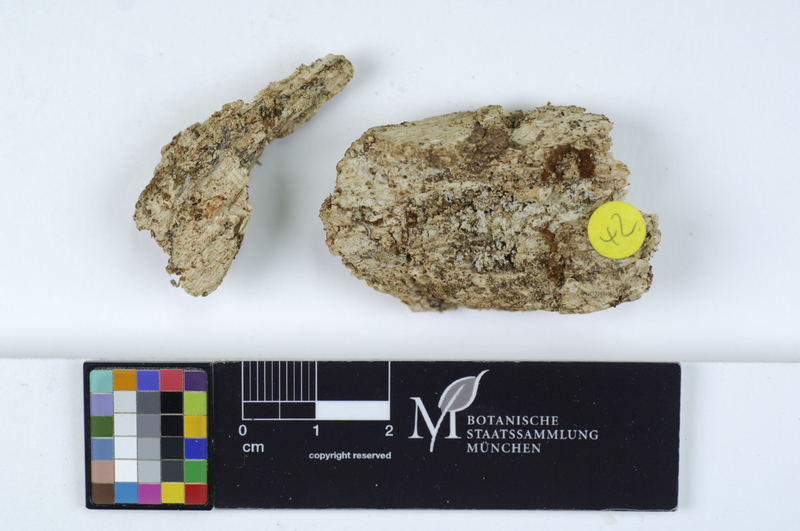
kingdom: Fungi
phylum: Basidiomycota
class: Agaricomycetes
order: Cantharellales
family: Botryobasidiaceae
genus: Botryobasidium
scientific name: Botryobasidium rubiginosum
